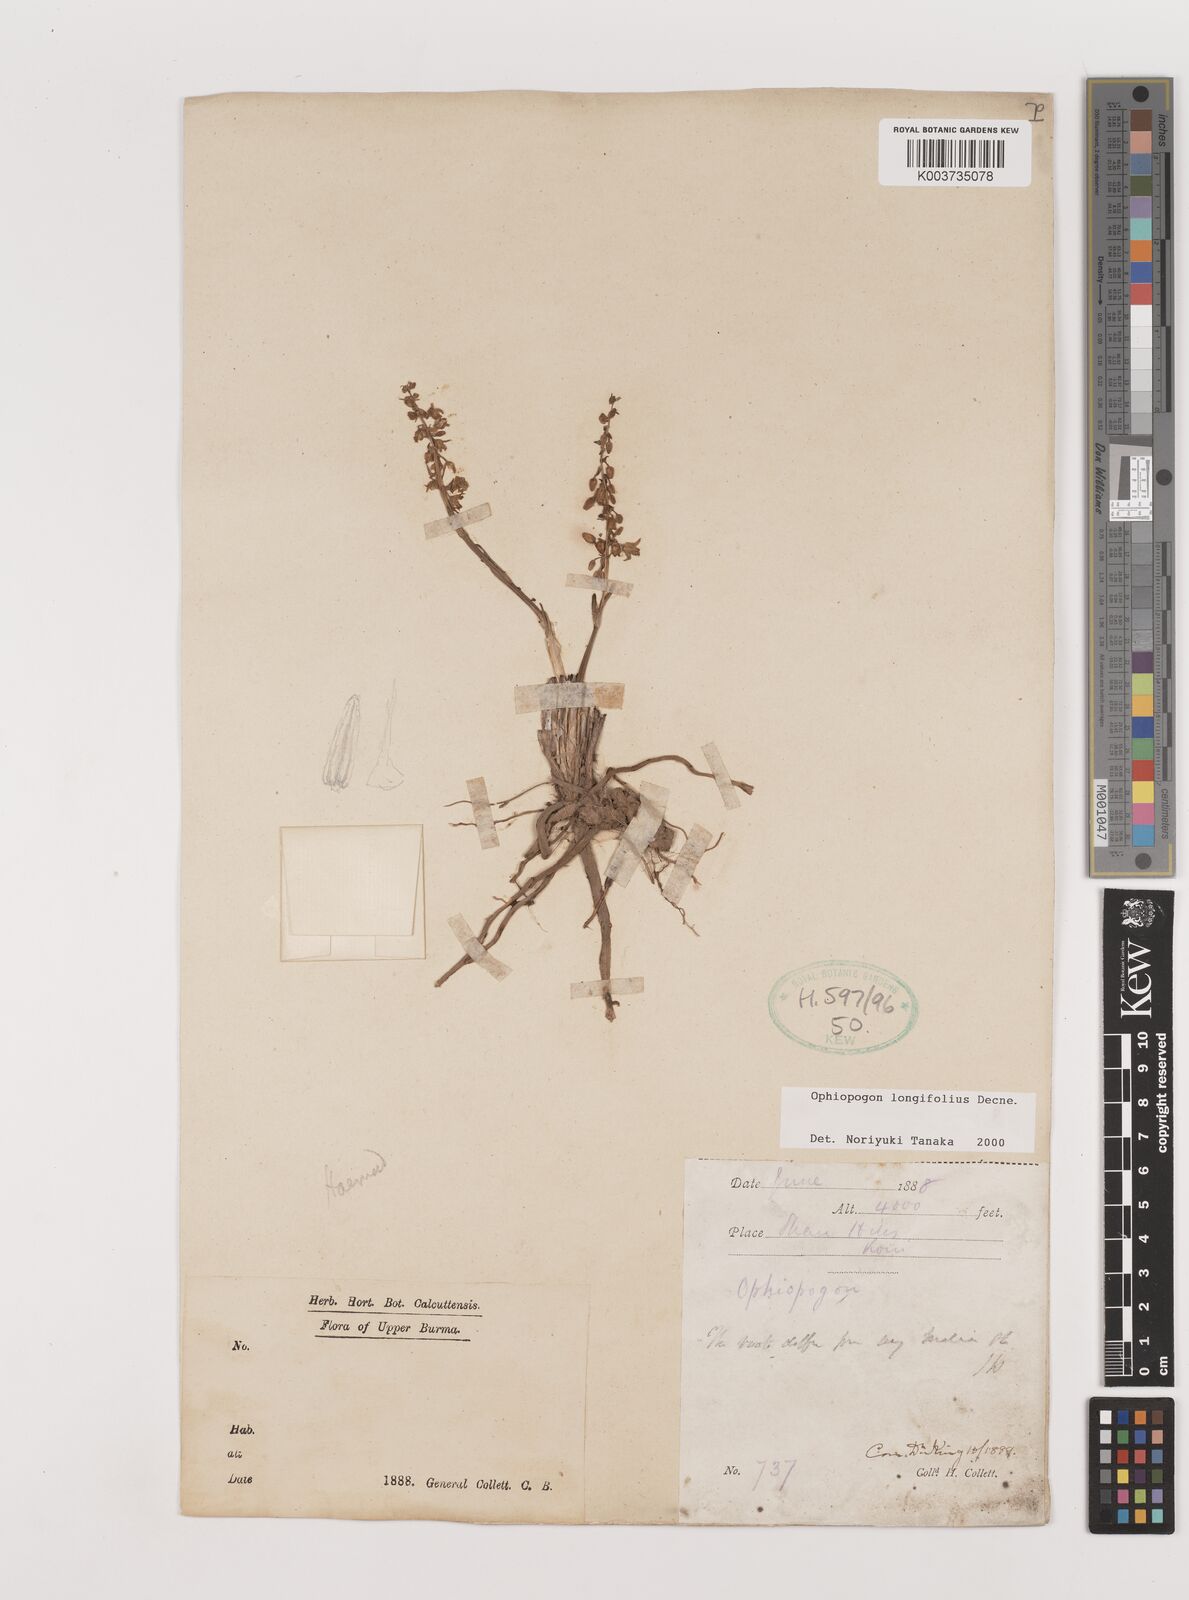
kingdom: Plantae
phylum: Tracheophyta
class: Liliopsida
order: Asparagales
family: Asparagaceae
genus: Ophiopogon
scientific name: Ophiopogon longifolius
